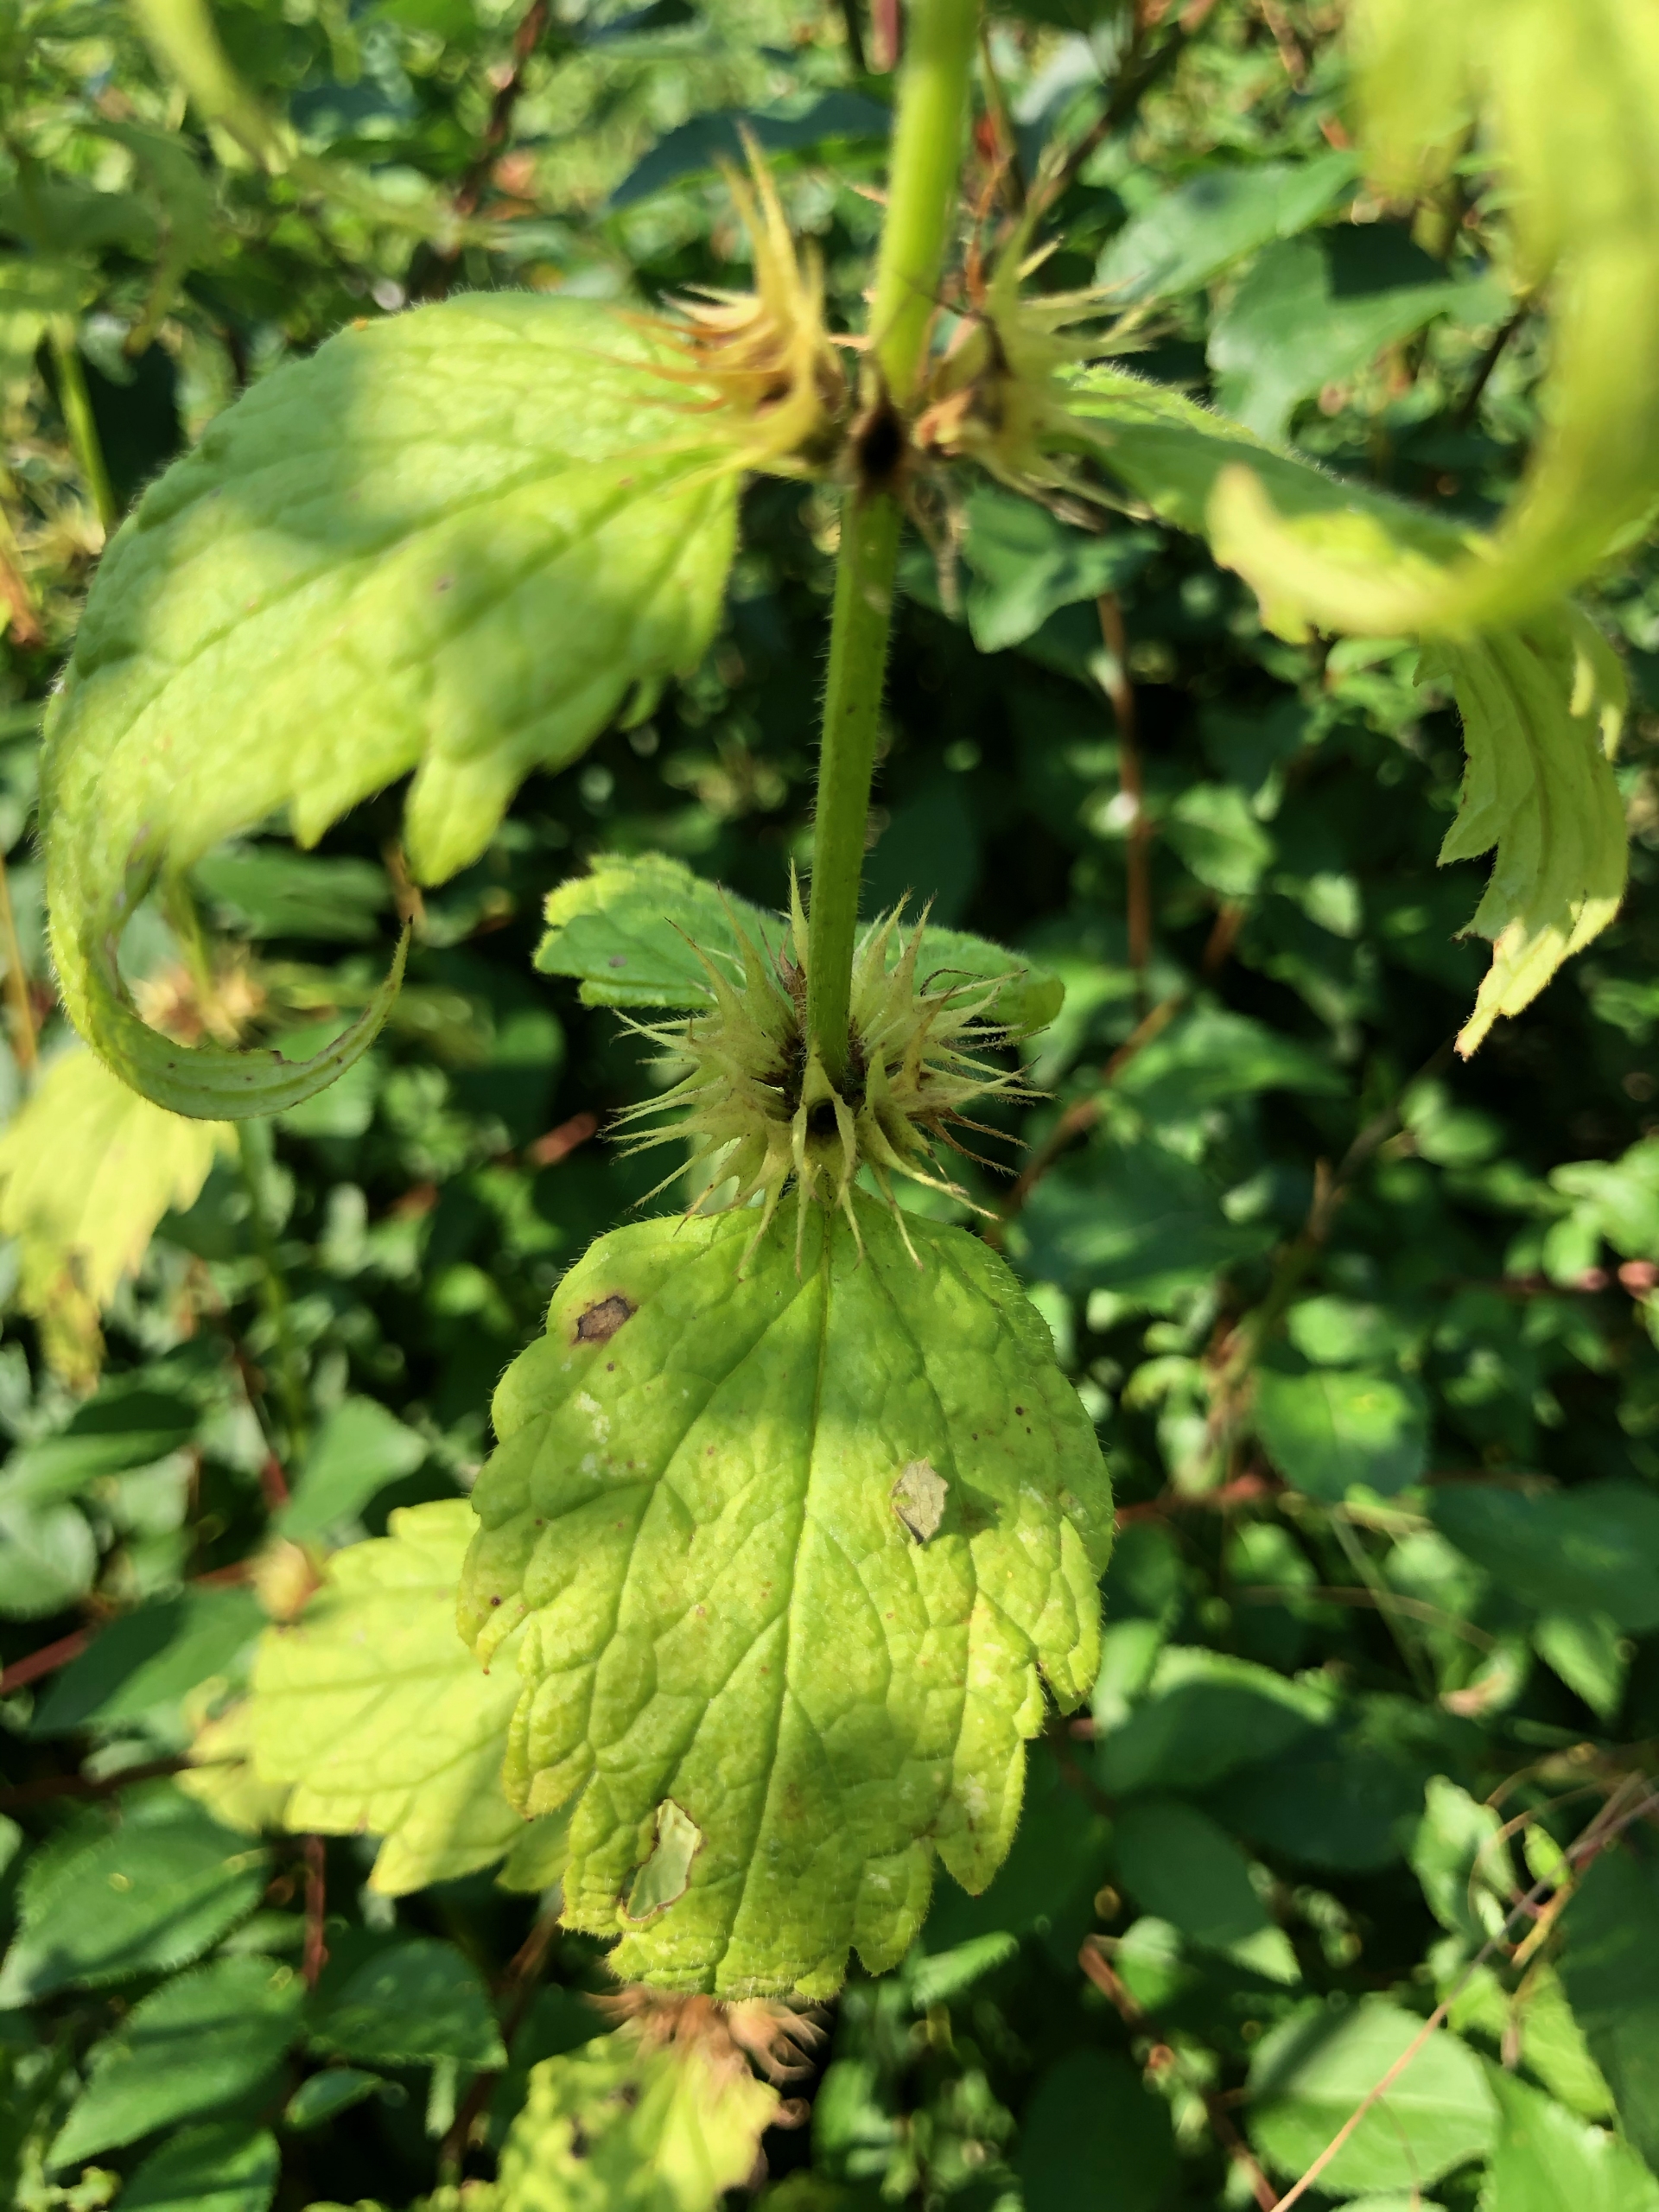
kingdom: Plantae
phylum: Tracheophyta
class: Magnoliopsida
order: Lamiales
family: Lamiaceae
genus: Lamium
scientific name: Lamium album
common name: Døvnælde
